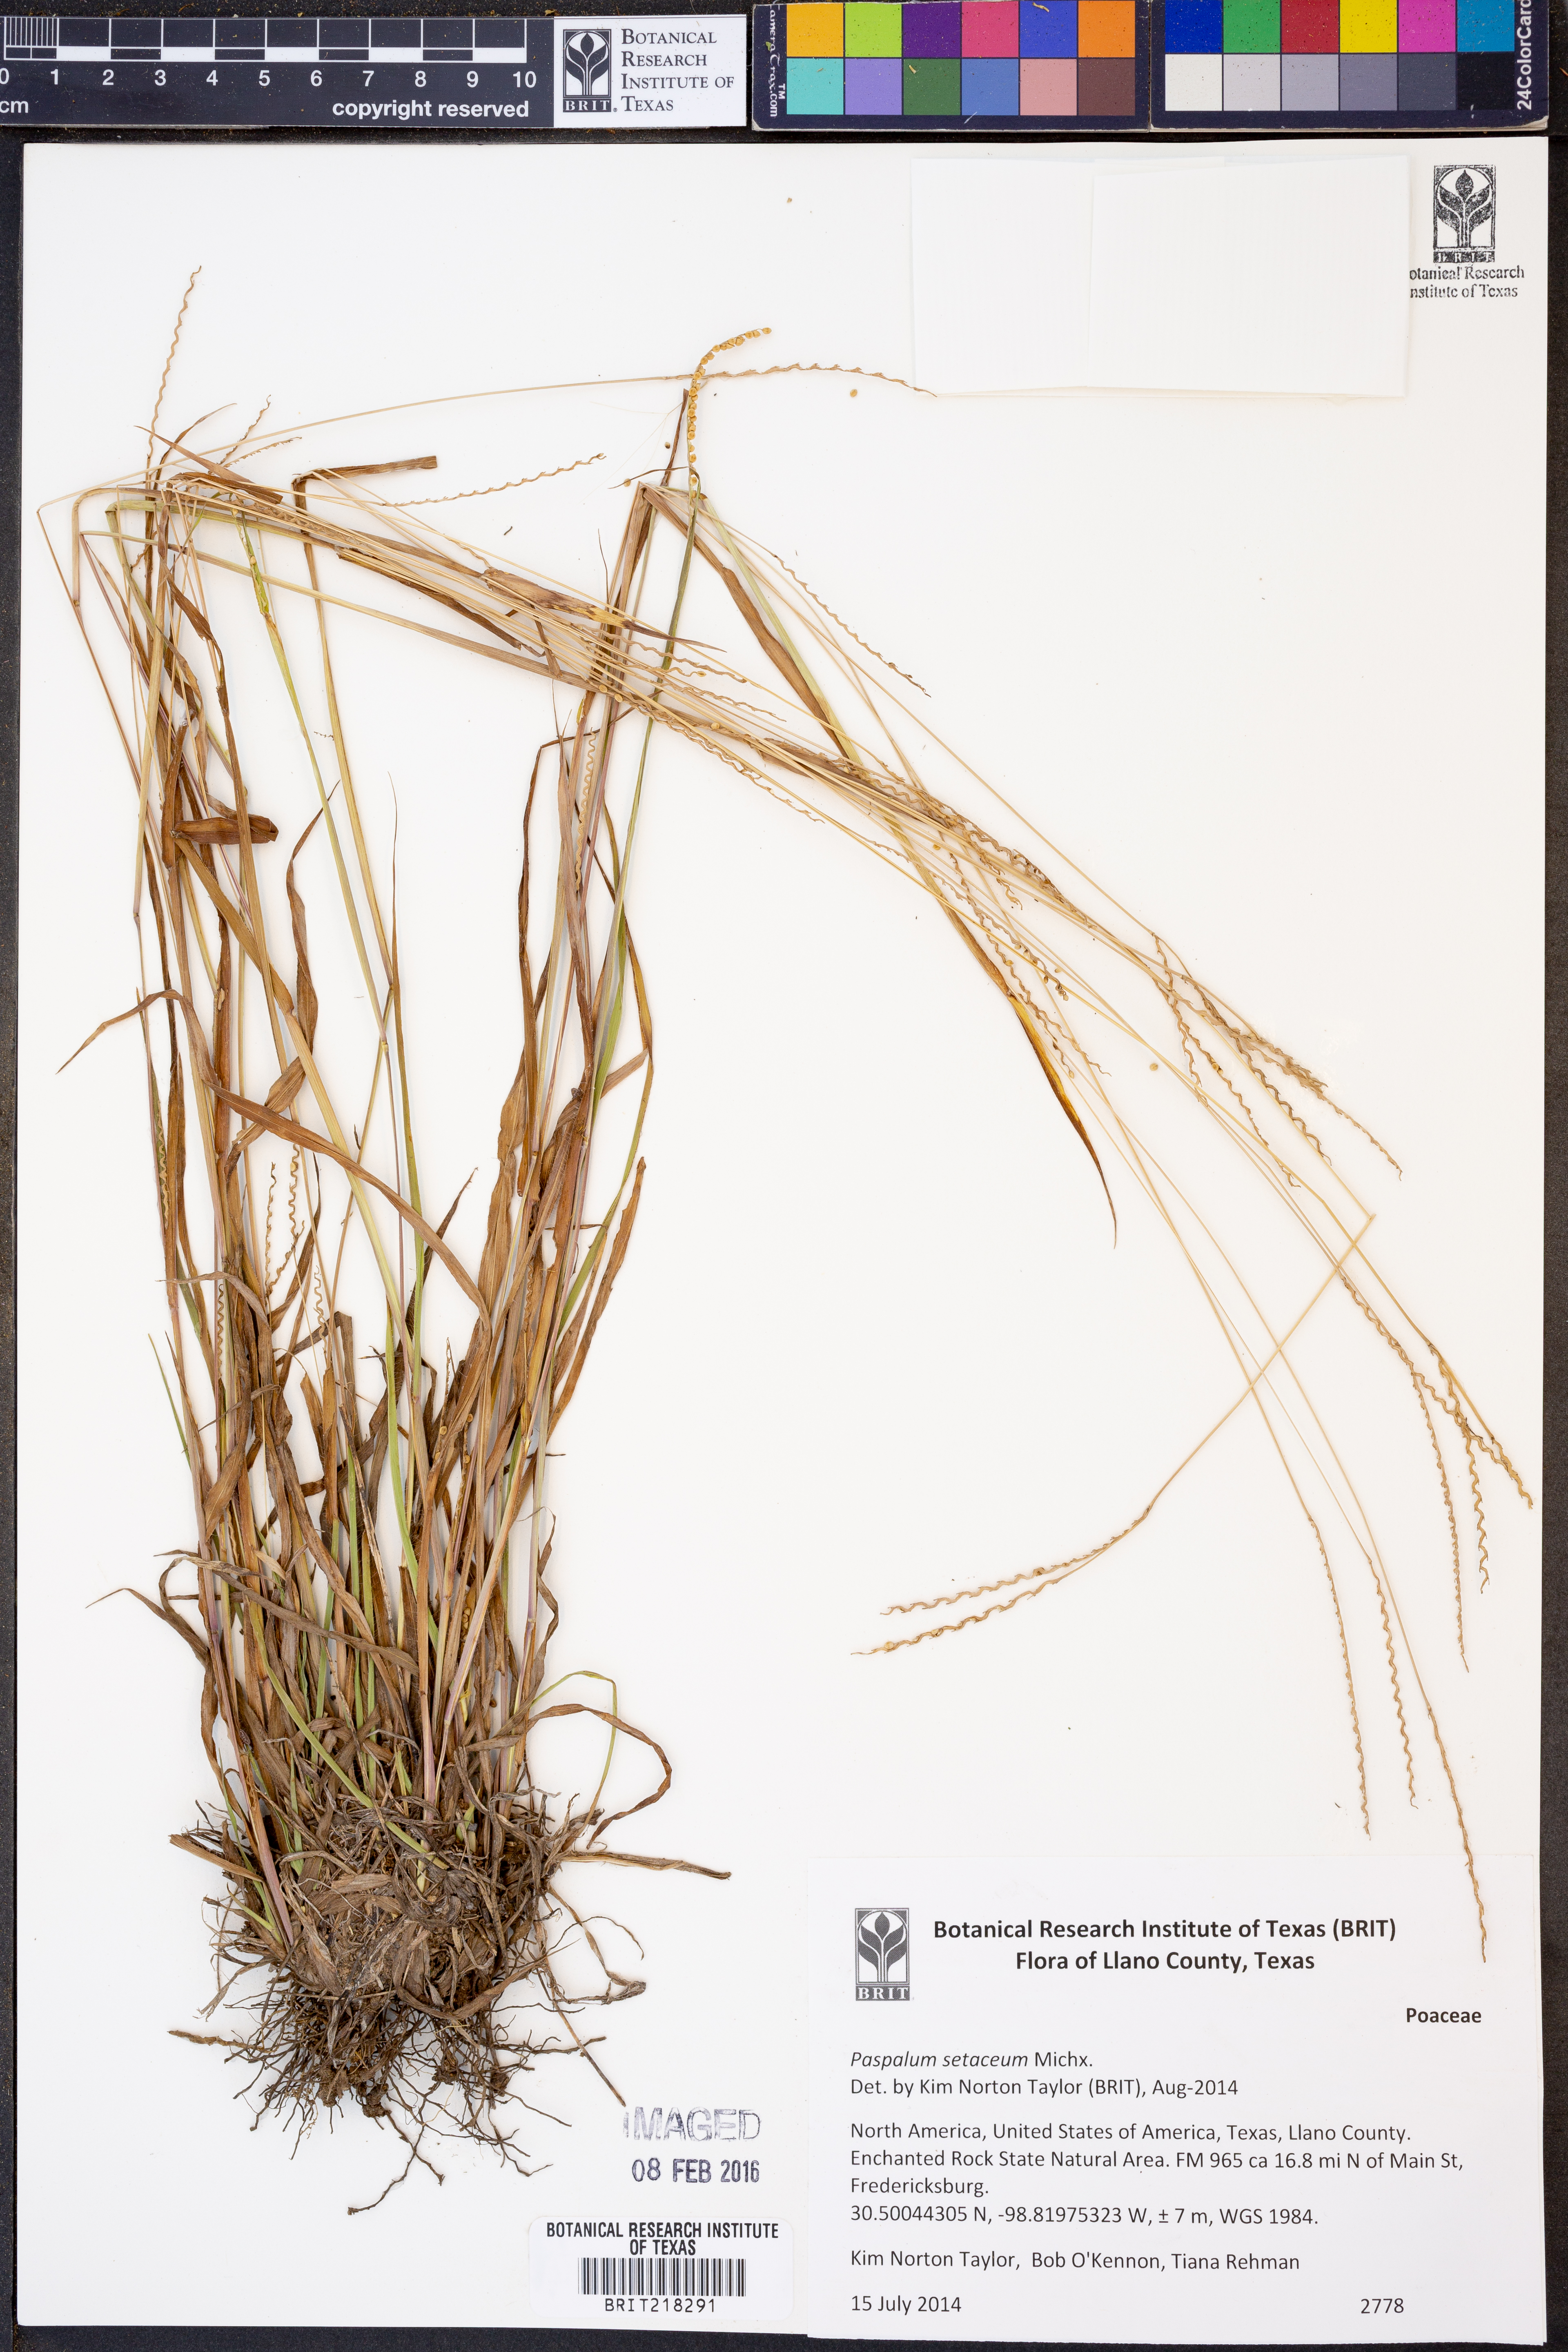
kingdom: Plantae
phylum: Tracheophyta
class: Liliopsida
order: Poales
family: Poaceae
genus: Paspalum
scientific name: Paspalum setaceum
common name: Slender paspalum
